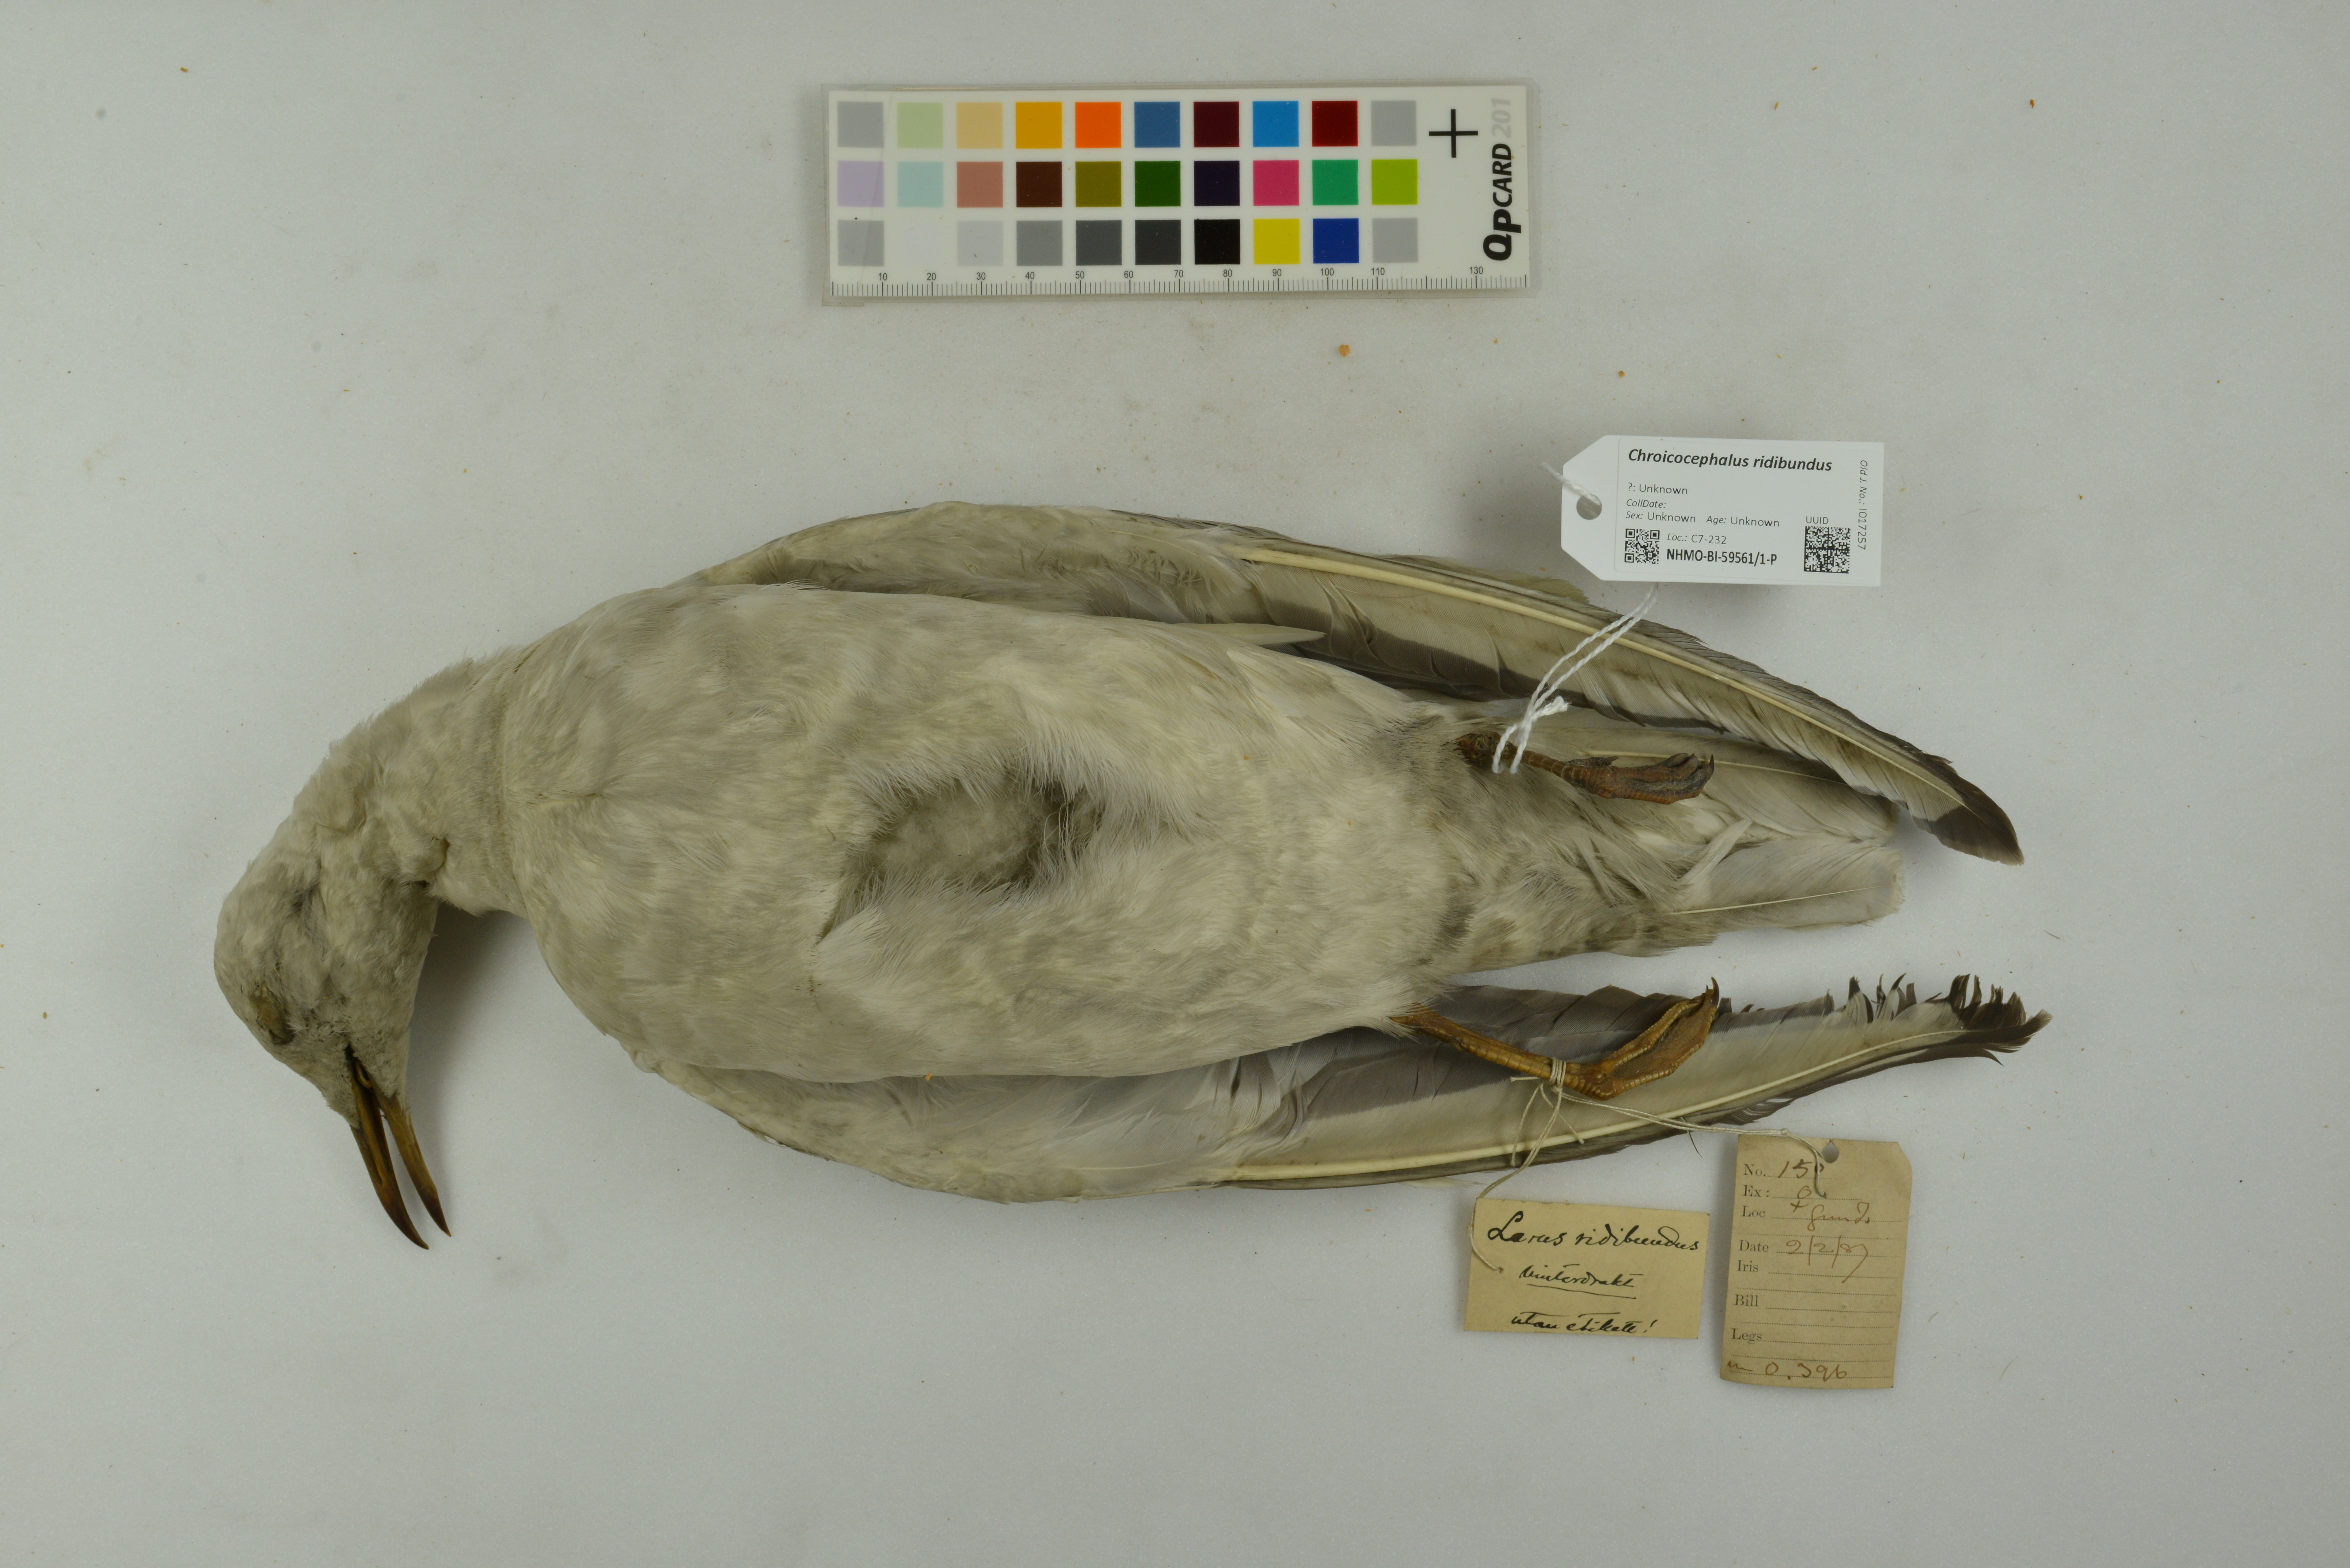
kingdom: Animalia
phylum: Chordata
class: Aves
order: Charadriiformes
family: Laridae
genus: Chroicocephalus
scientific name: Chroicocephalus ridibundus
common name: Black-headed gull
